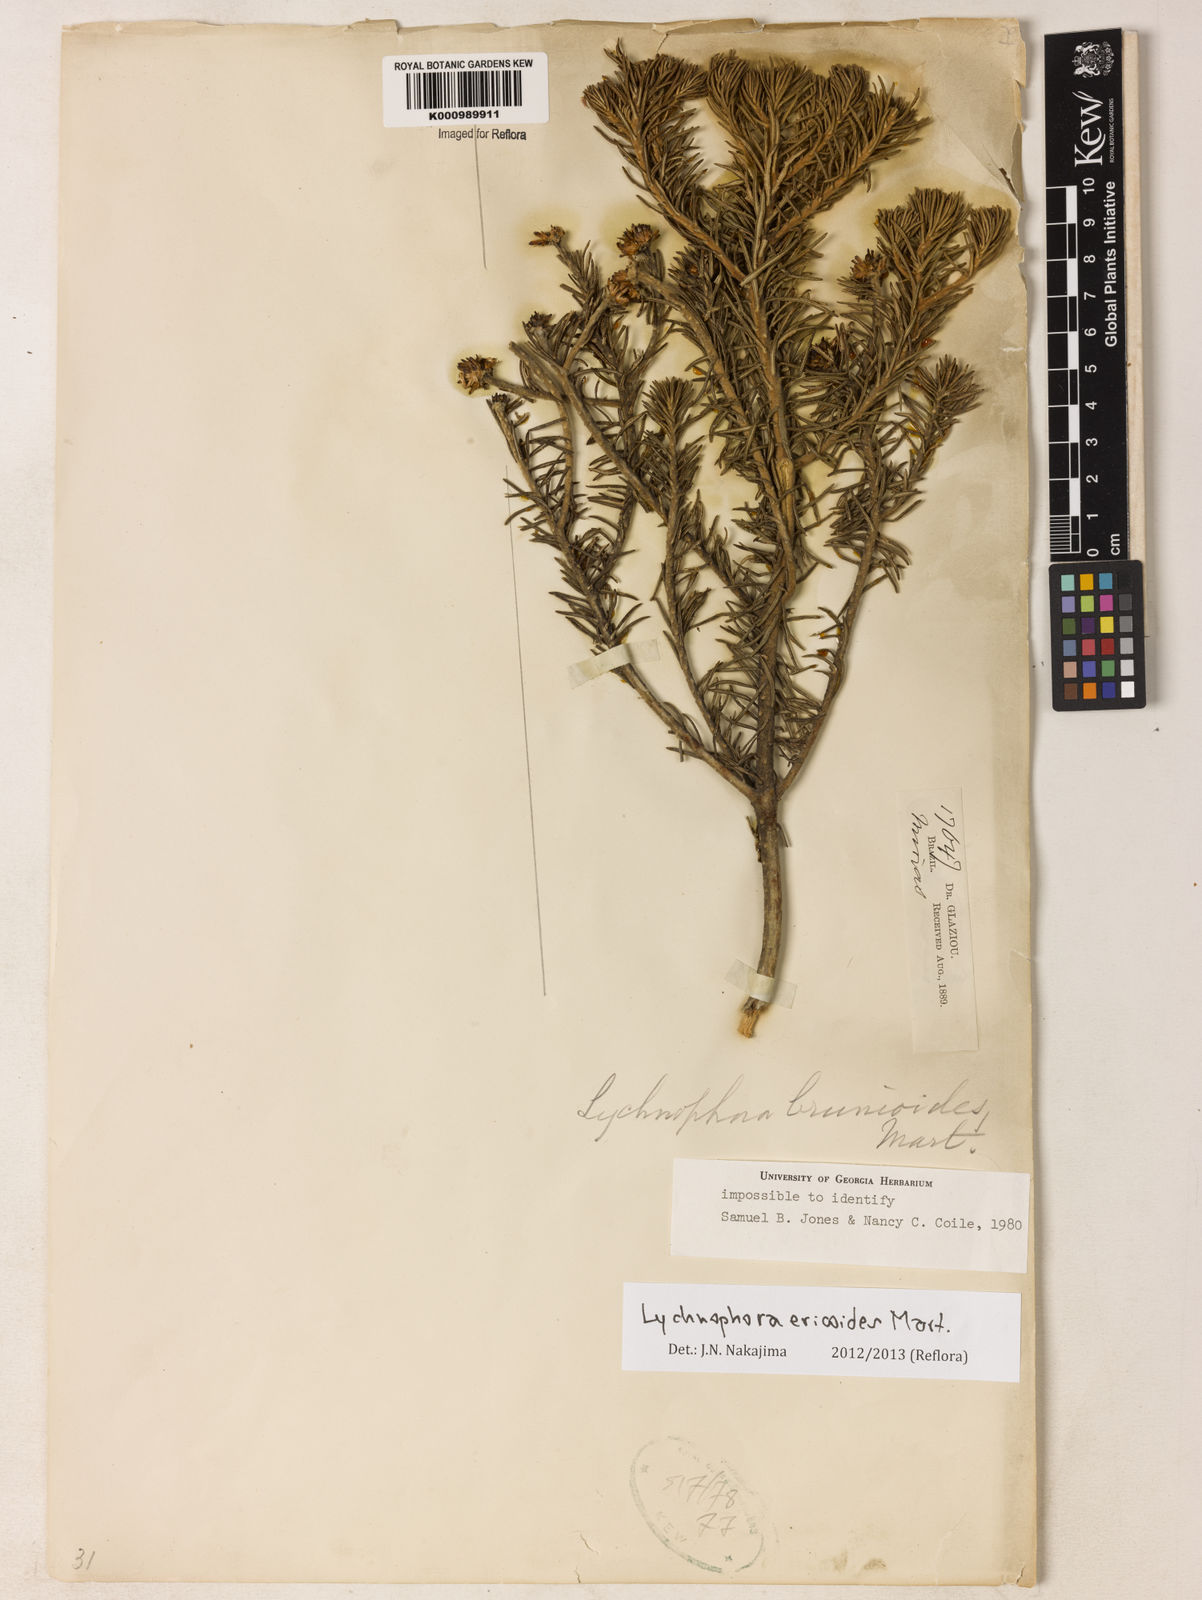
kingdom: Plantae
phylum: Tracheophyta
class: Magnoliopsida
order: Asterales
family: Asteraceae
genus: Lychnophora
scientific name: Lychnophora ericoides
